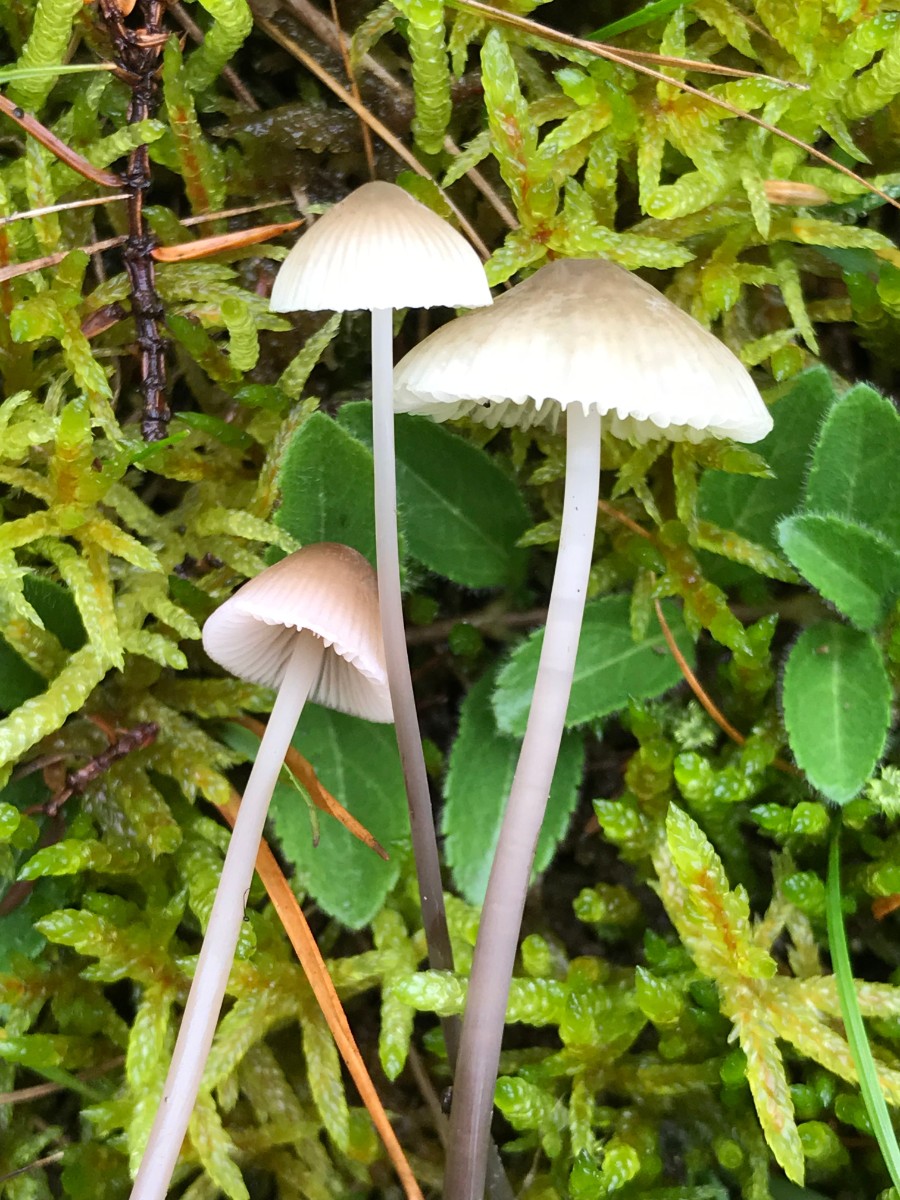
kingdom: Fungi
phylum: Basidiomycota
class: Agaricomycetes
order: Agaricales
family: Mycenaceae
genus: Mycena
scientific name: Mycena metata
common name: rødlig huesvamp
